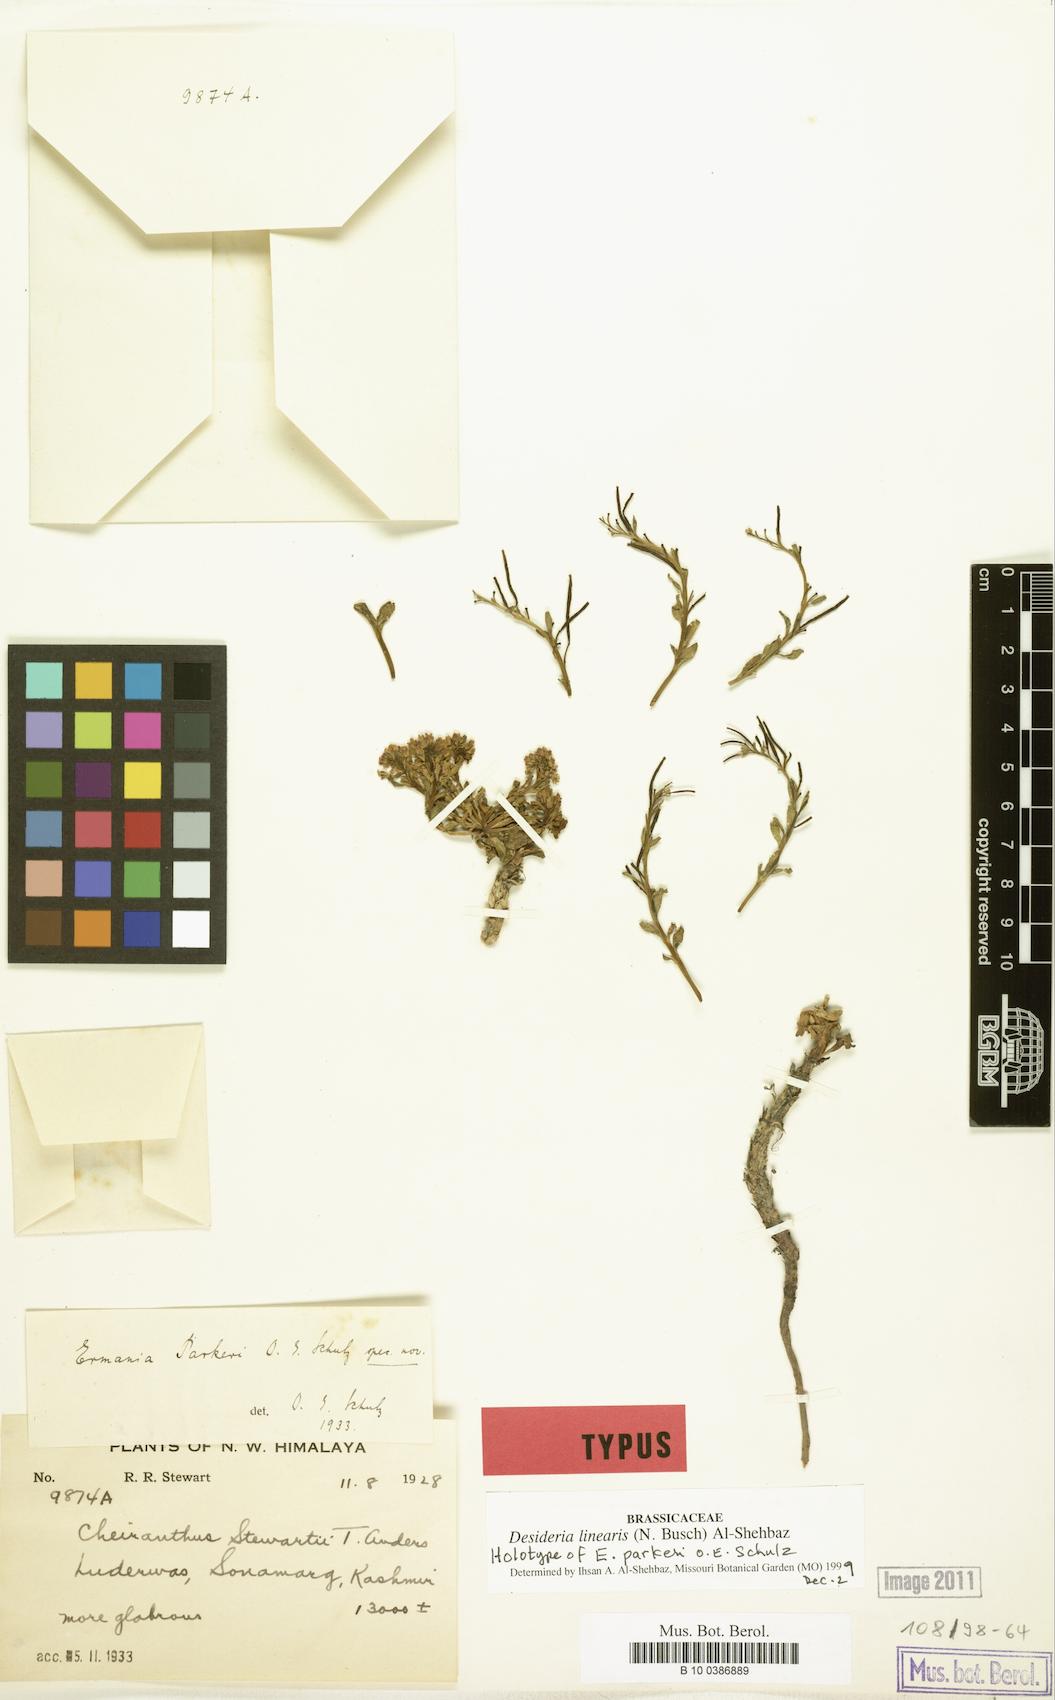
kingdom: Plantae
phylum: Tracheophyta
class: Magnoliopsida
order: Brassicales
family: Brassicaceae
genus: Solms-laubachia
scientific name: Solms-laubachia linearis
